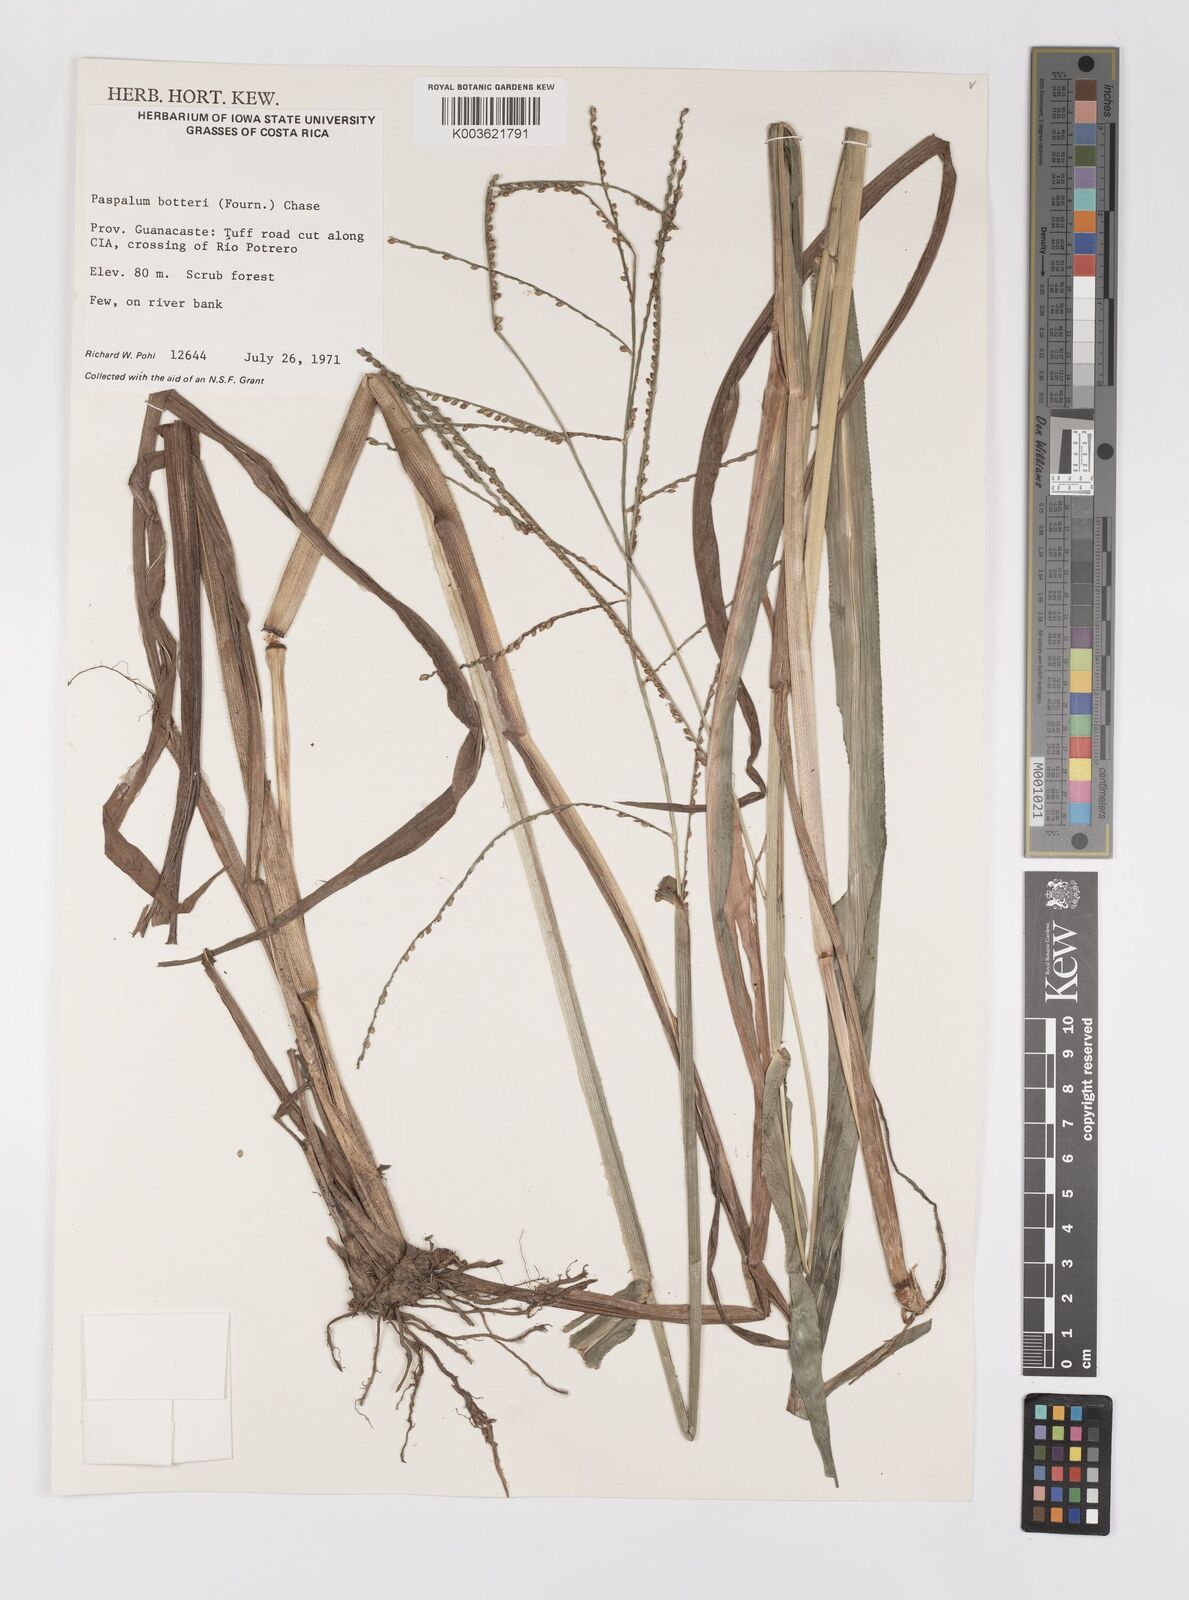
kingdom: Plantae
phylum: Tracheophyta
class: Liliopsida
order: Poales
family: Poaceae
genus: Paspalum
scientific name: Paspalum botterii
